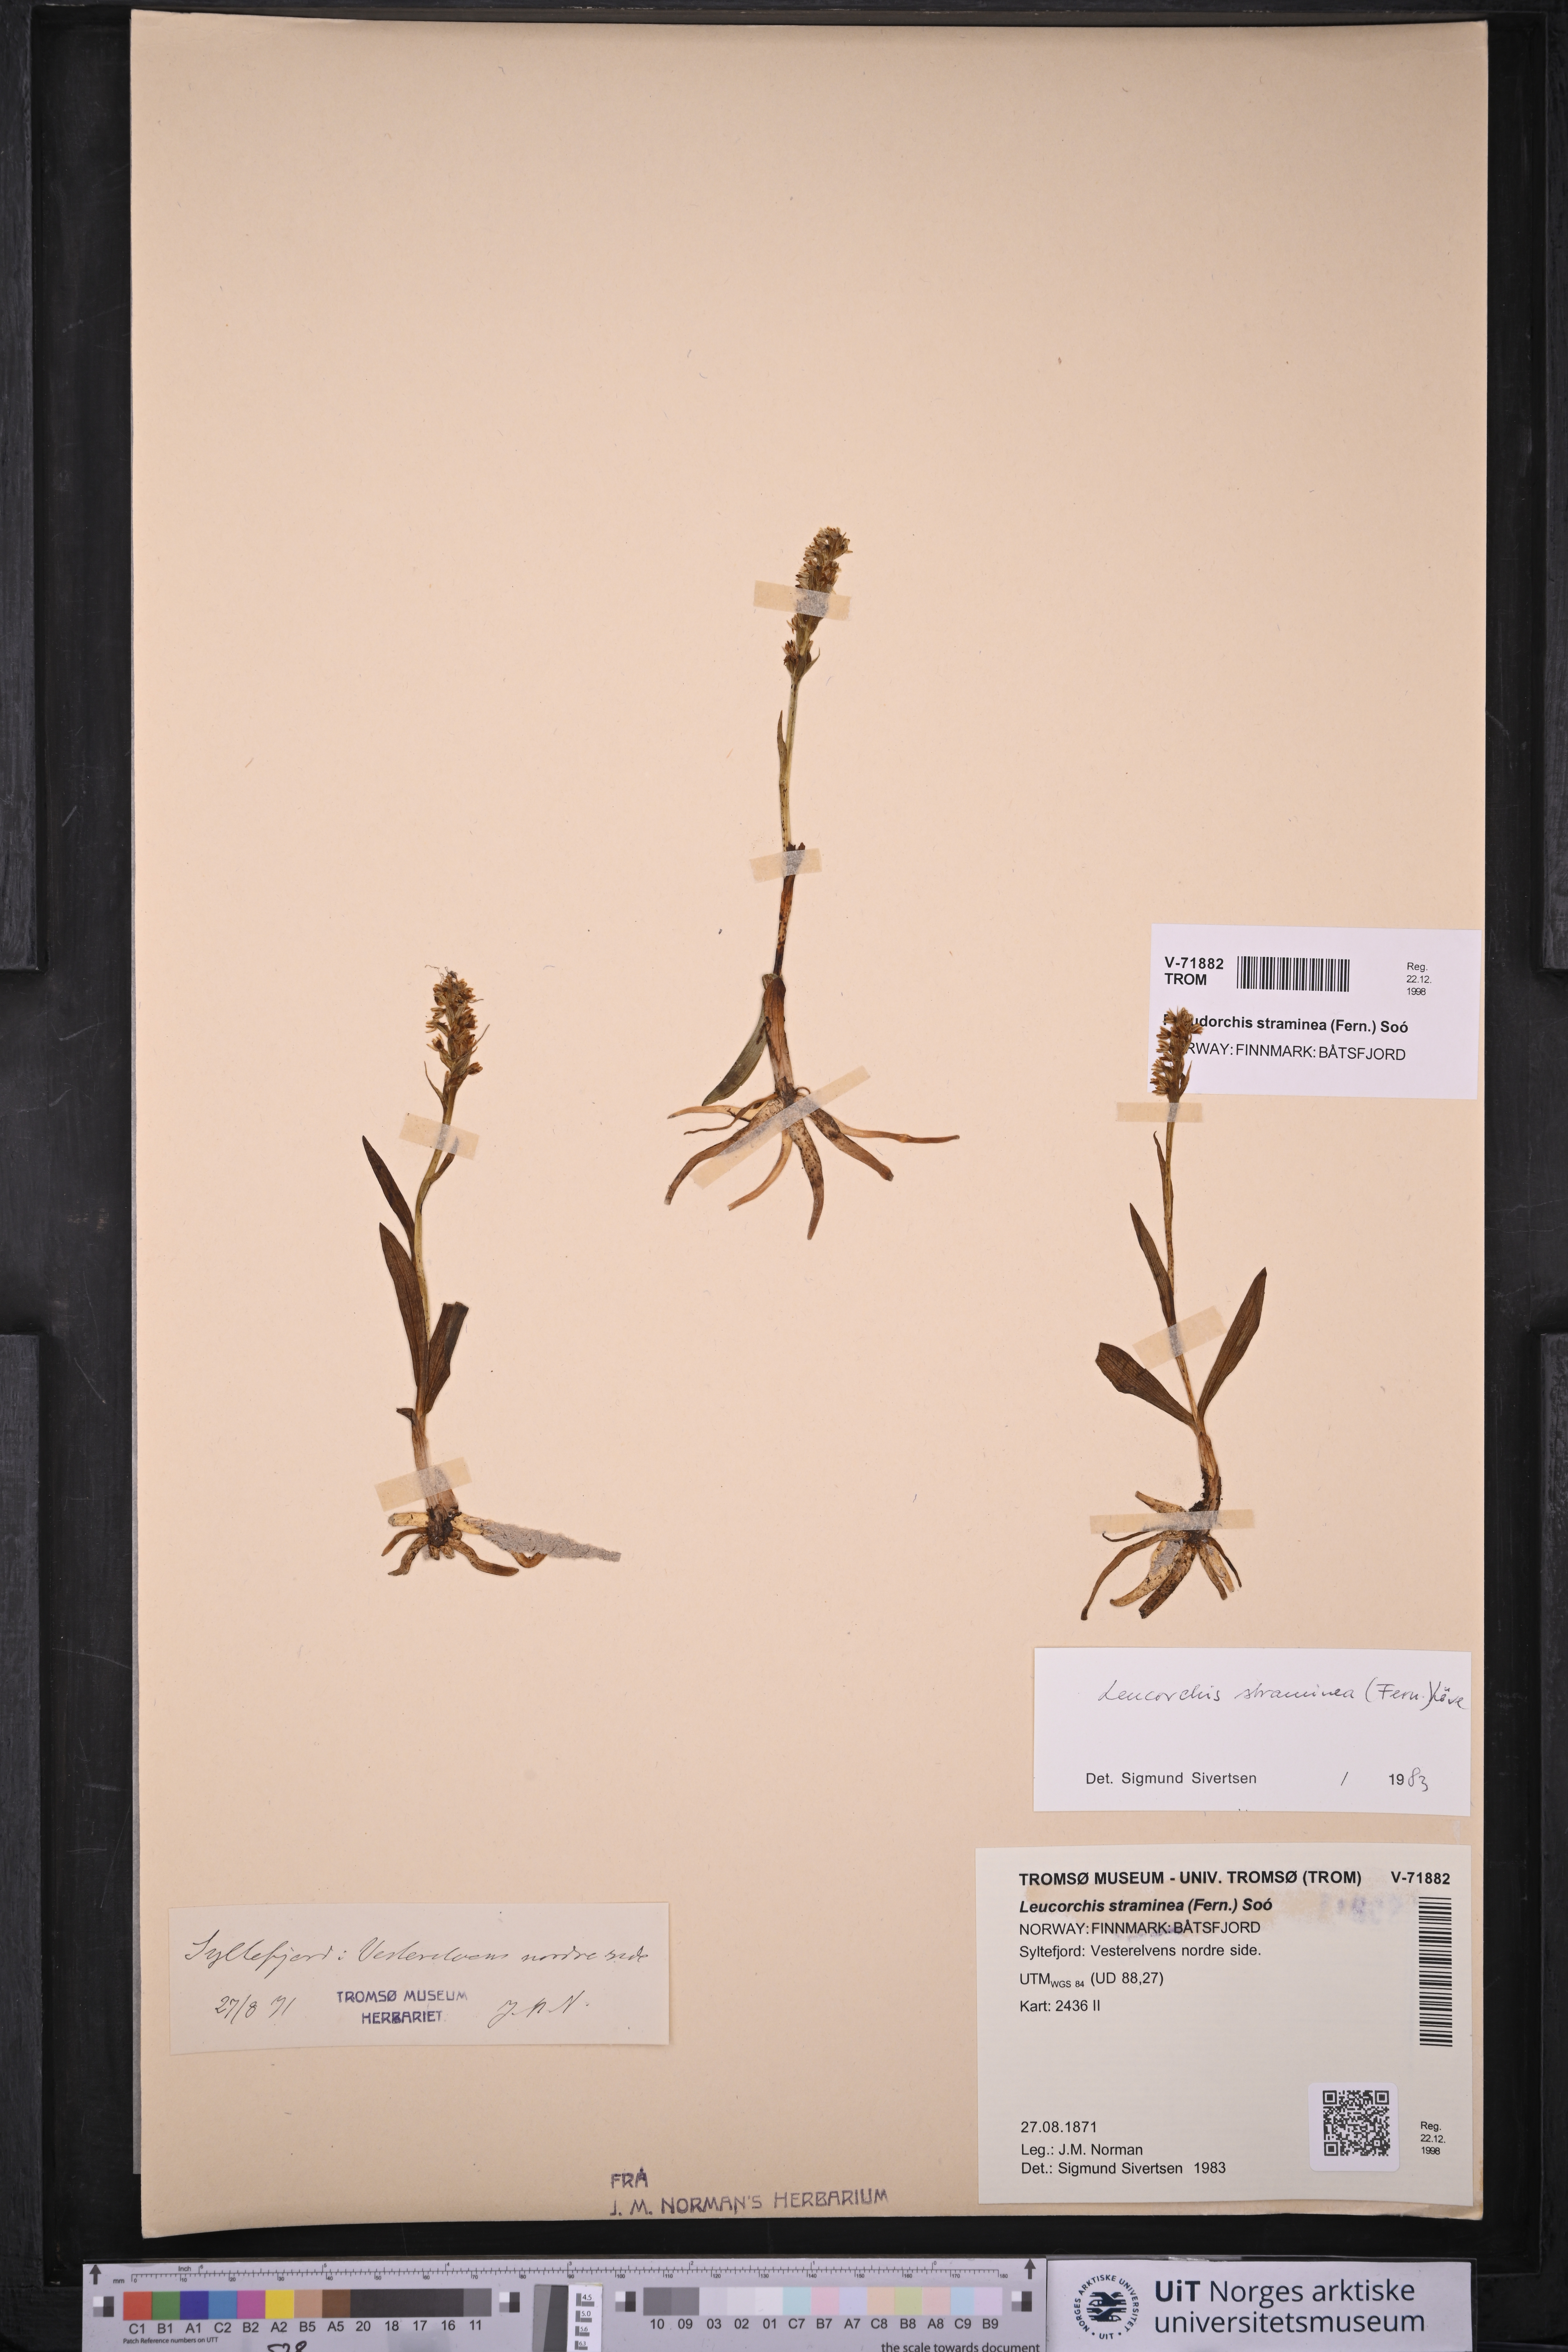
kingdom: Plantae
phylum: Tracheophyta
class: Liliopsida
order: Asparagales
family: Orchidaceae
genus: Pseudorchis
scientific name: Pseudorchis straminea
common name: Vanilla-scented bog orchid
